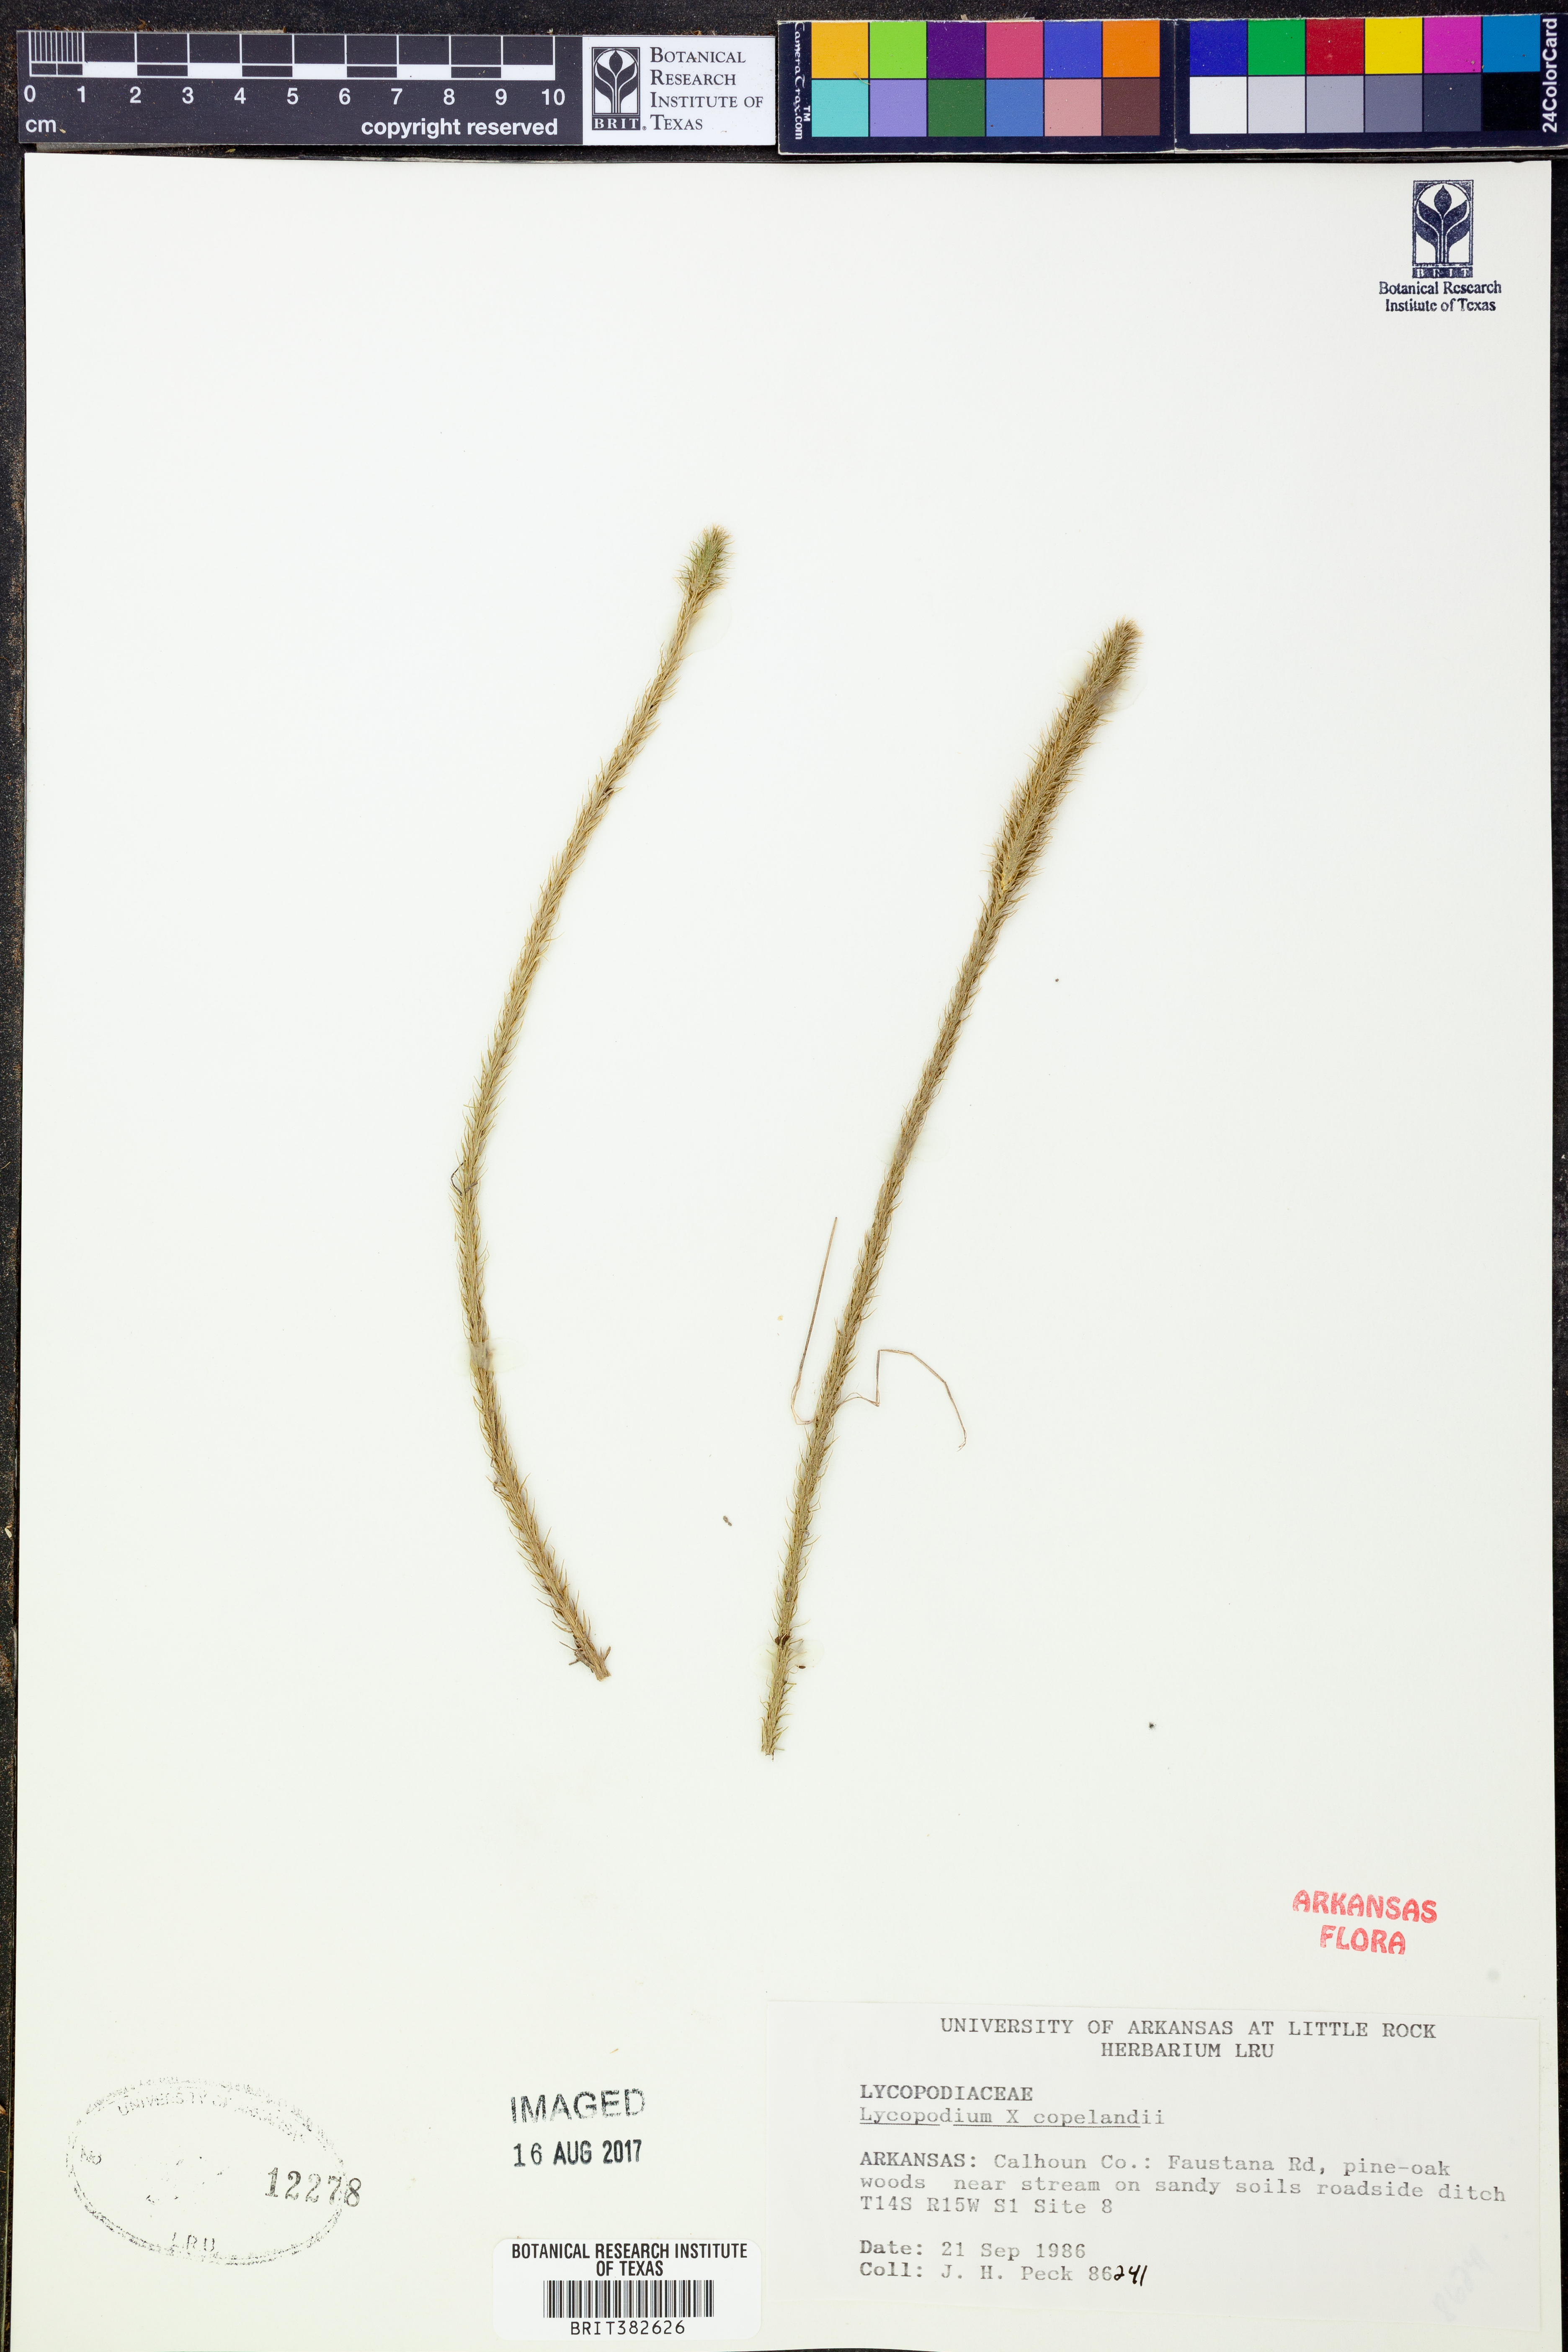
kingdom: Plantae
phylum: Tracheophyta
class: Lycopodiopsida
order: Lycopodiales
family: Lycopodiaceae
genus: Lycopodiella
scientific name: Lycopodiella copelandii
